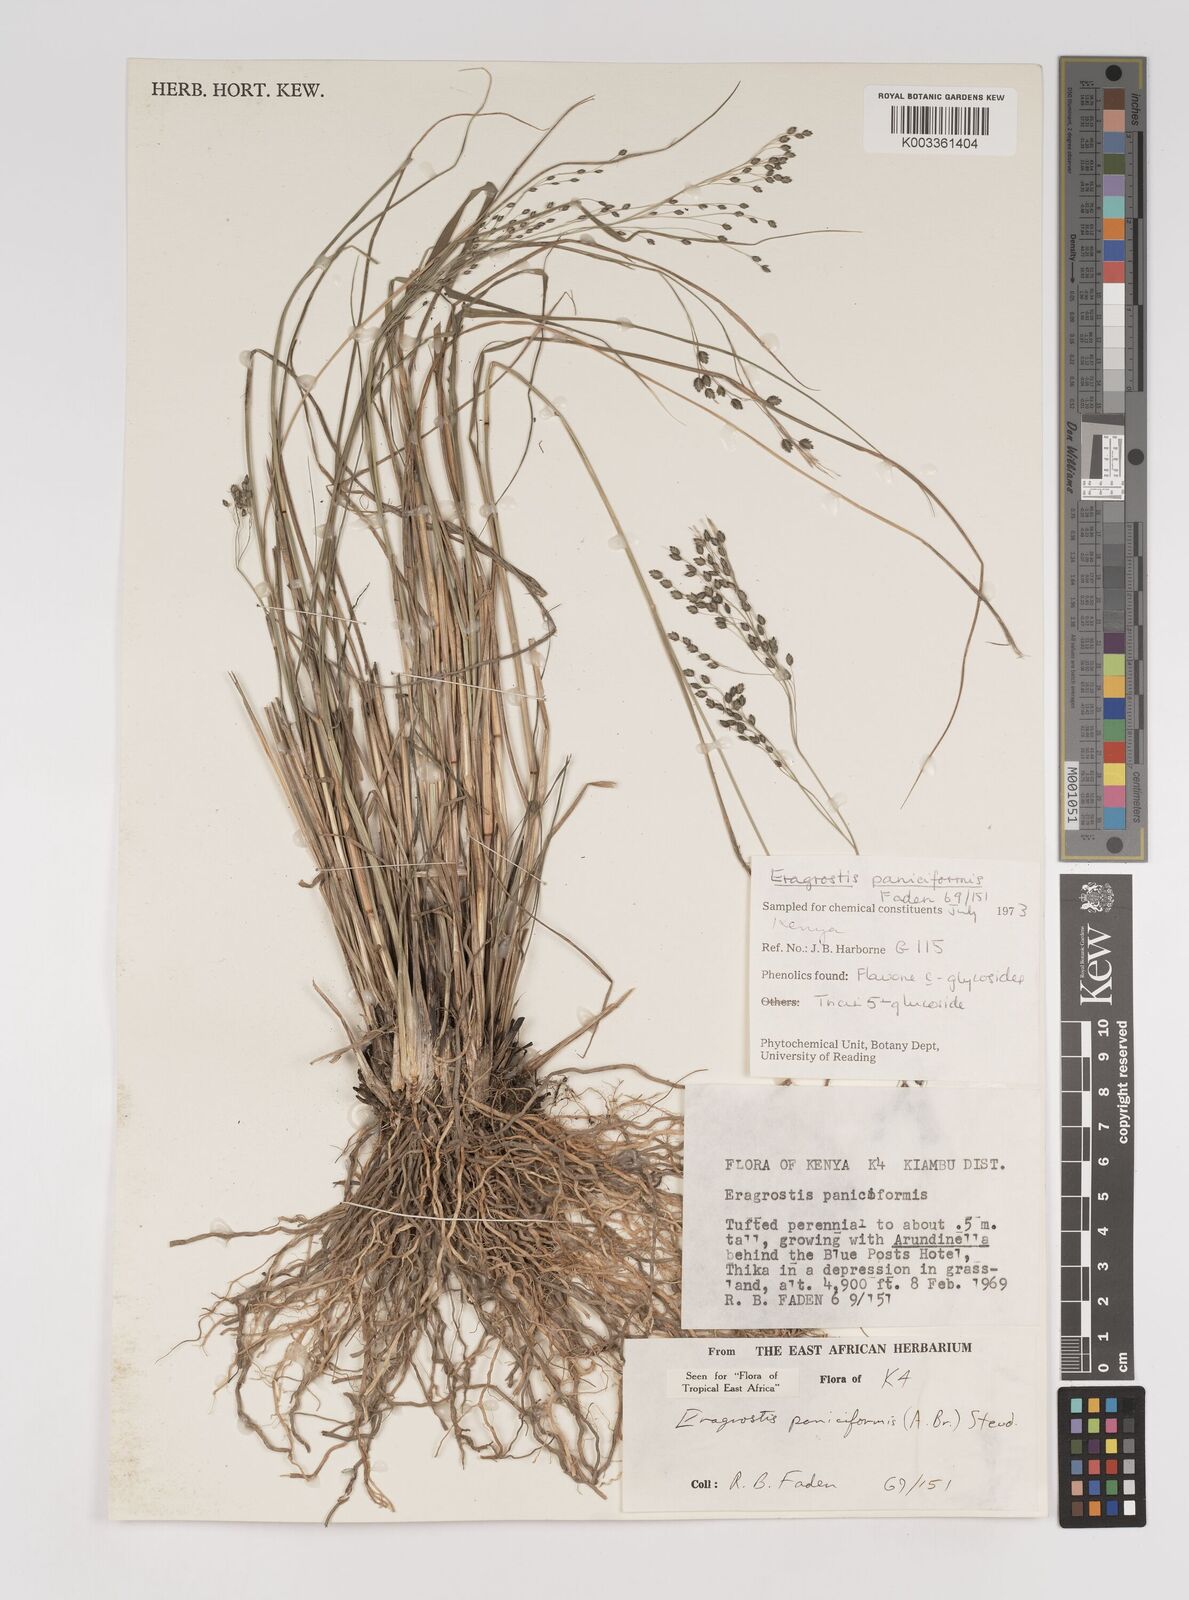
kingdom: Plantae
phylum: Tracheophyta
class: Liliopsida
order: Poales
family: Poaceae
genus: Eragrostis
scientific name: Eragrostis paniciformis
